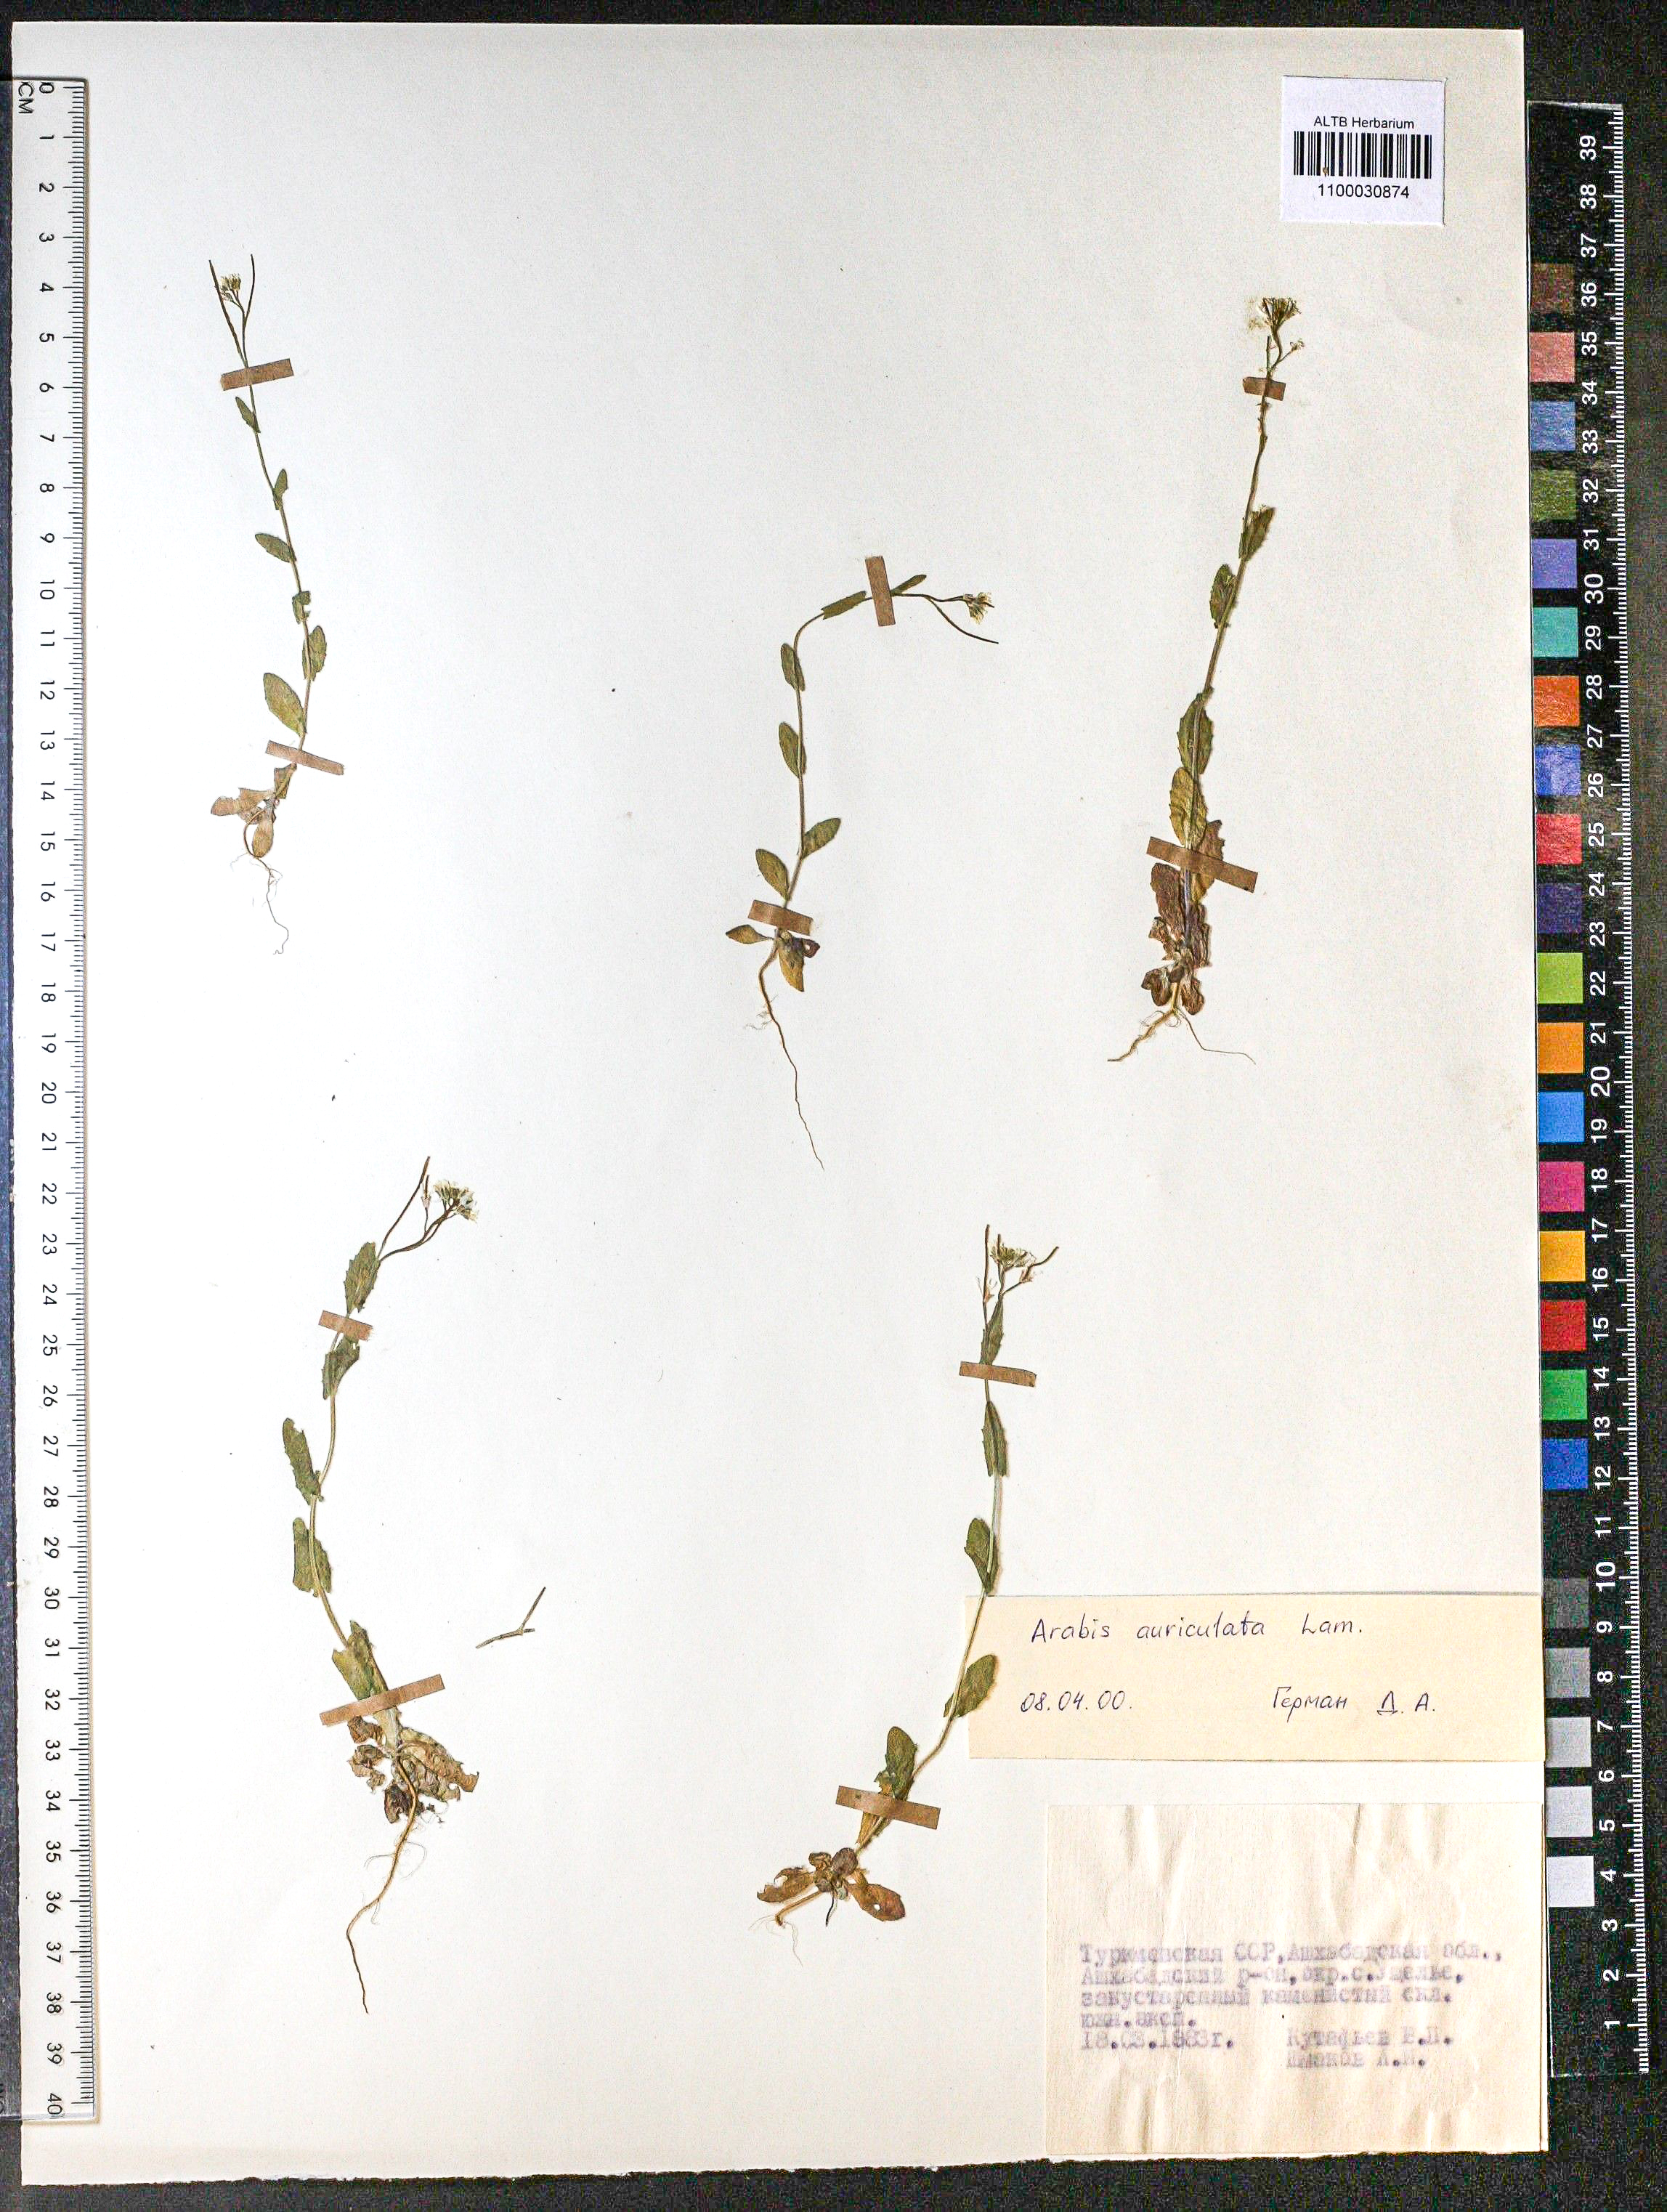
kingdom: Plantae
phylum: Tracheophyta
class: Magnoliopsida
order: Brassicales
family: Brassicaceae
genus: Arabis
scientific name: Arabis auriculata
